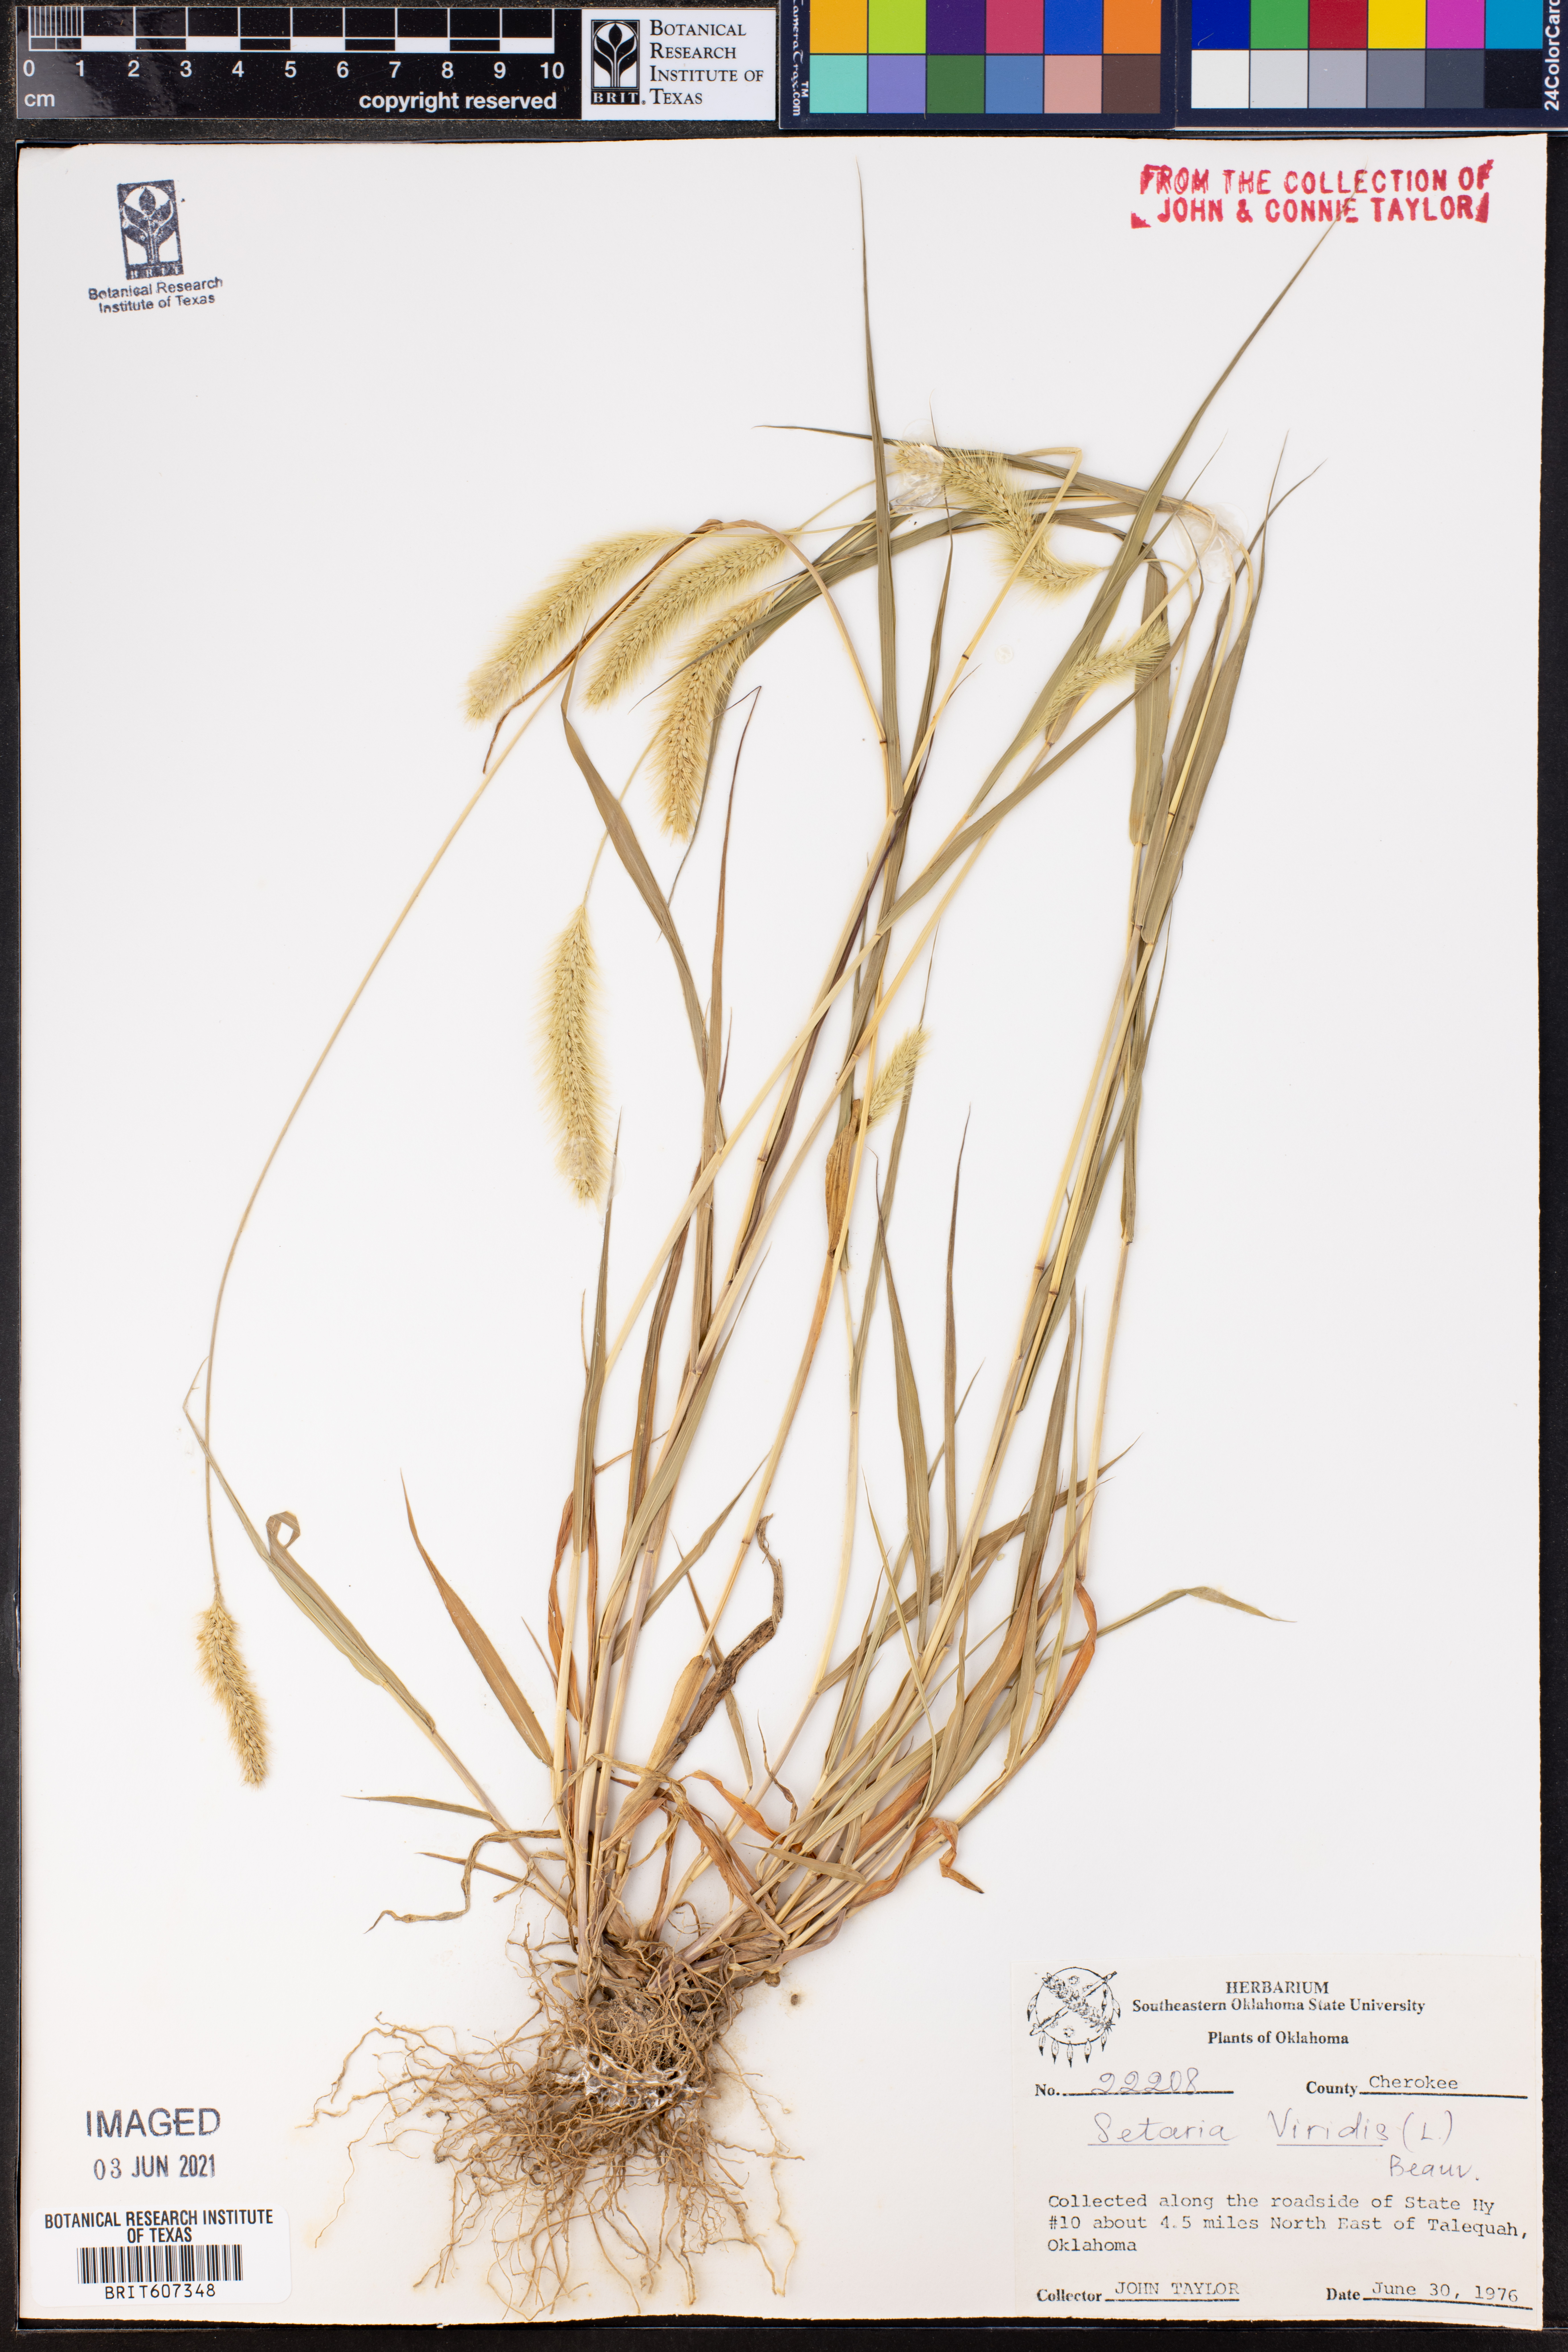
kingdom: Plantae
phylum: Tracheophyta
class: Liliopsida
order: Poales
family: Poaceae
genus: Setaria
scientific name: Setaria viridis
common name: Green bristlegrass
